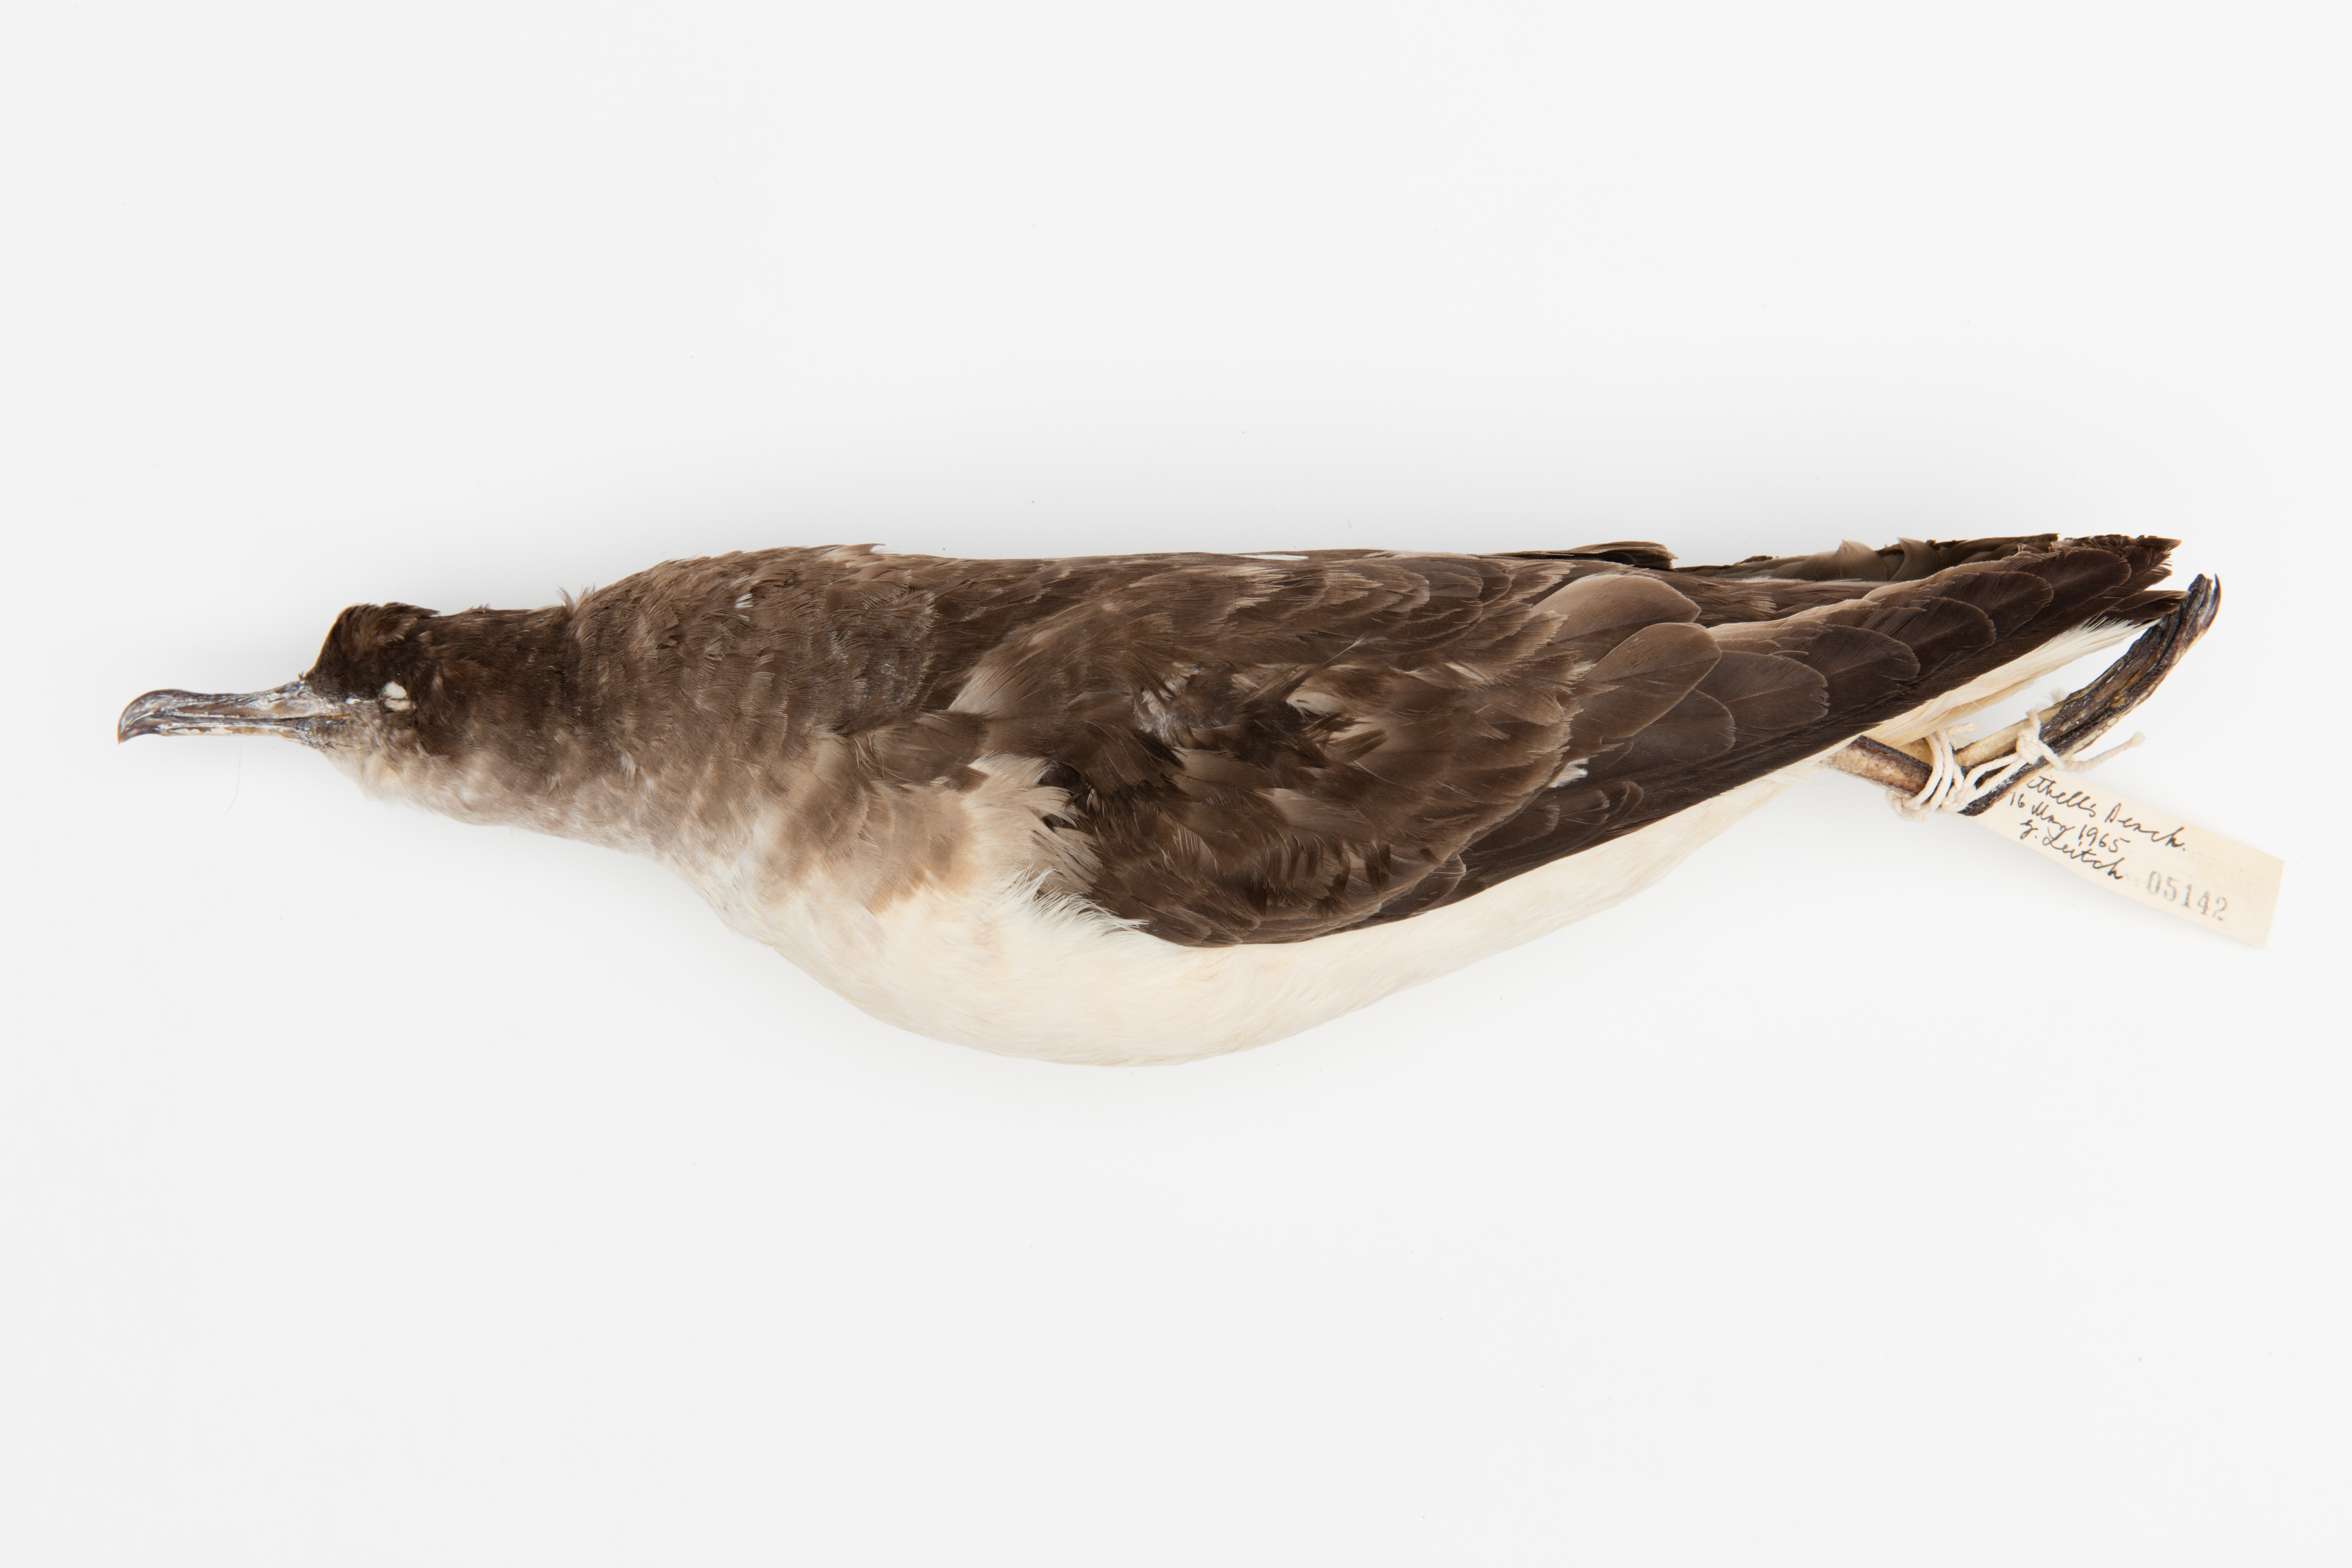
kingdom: Animalia
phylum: Chordata
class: Aves
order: Procellariiformes
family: Procellariidae
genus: Ardenna
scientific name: Ardenna
